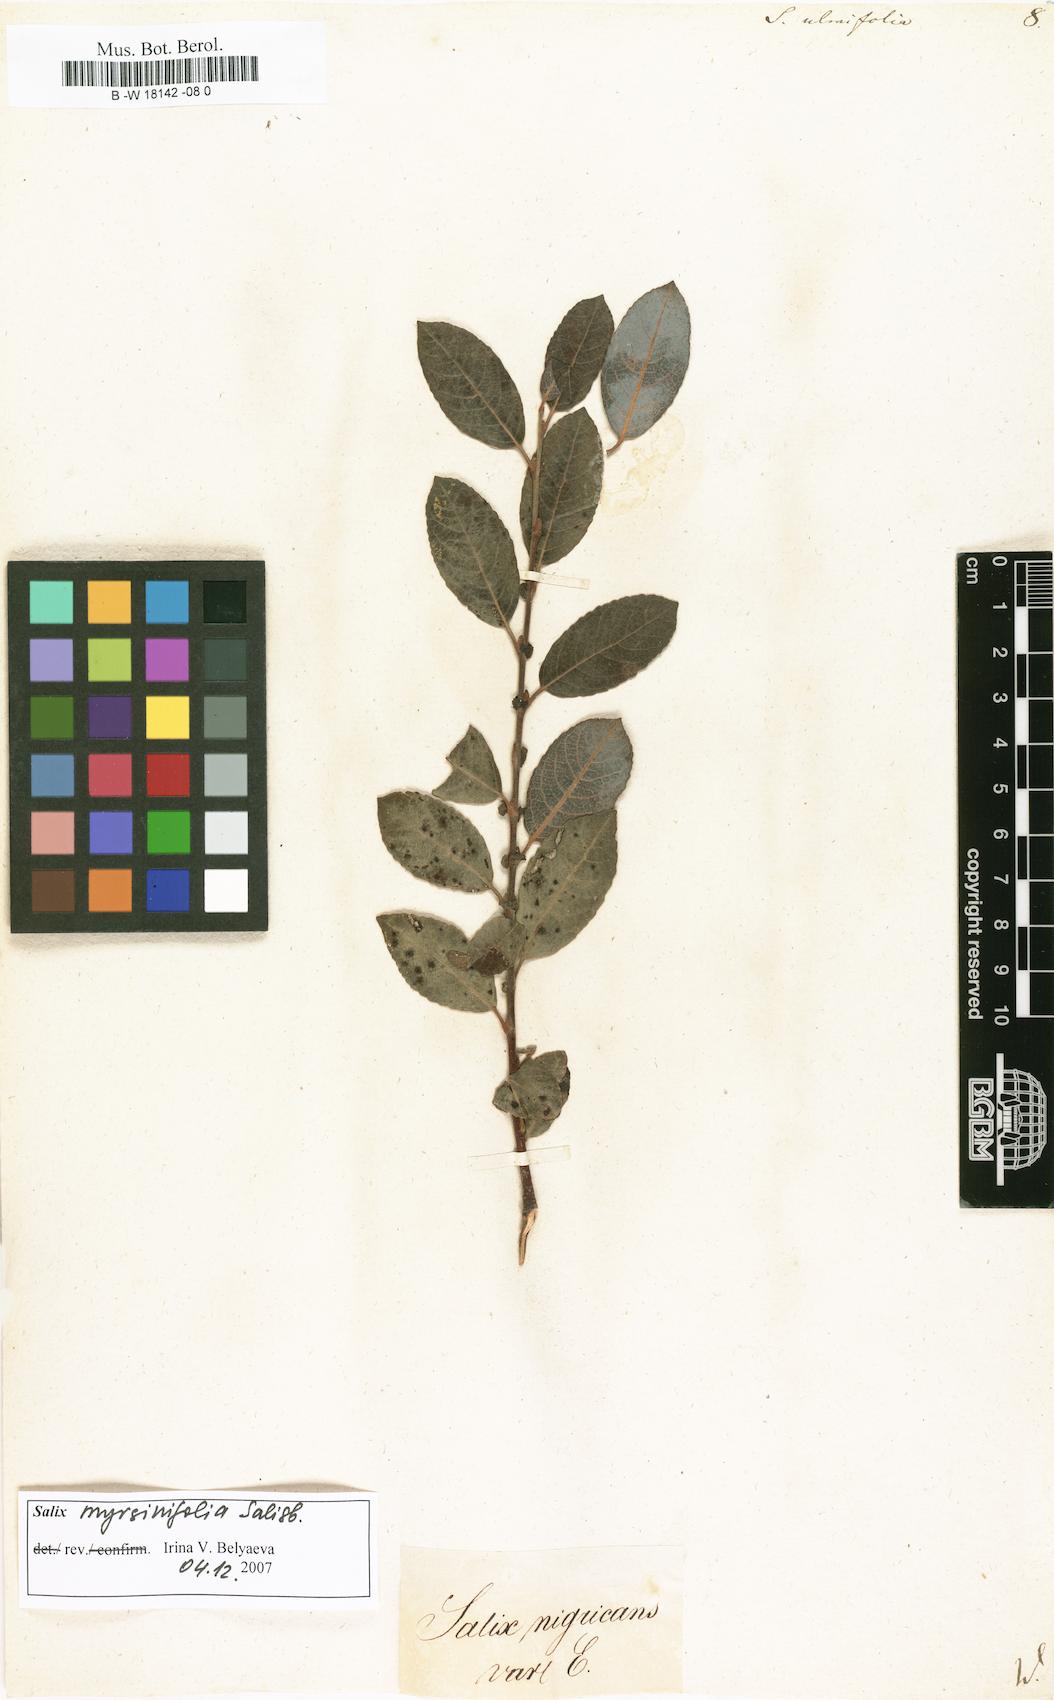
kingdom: Plantae
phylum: Tracheophyta
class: Magnoliopsida
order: Malpighiales
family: Salicaceae
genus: Salix
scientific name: Salix ulmifolia
